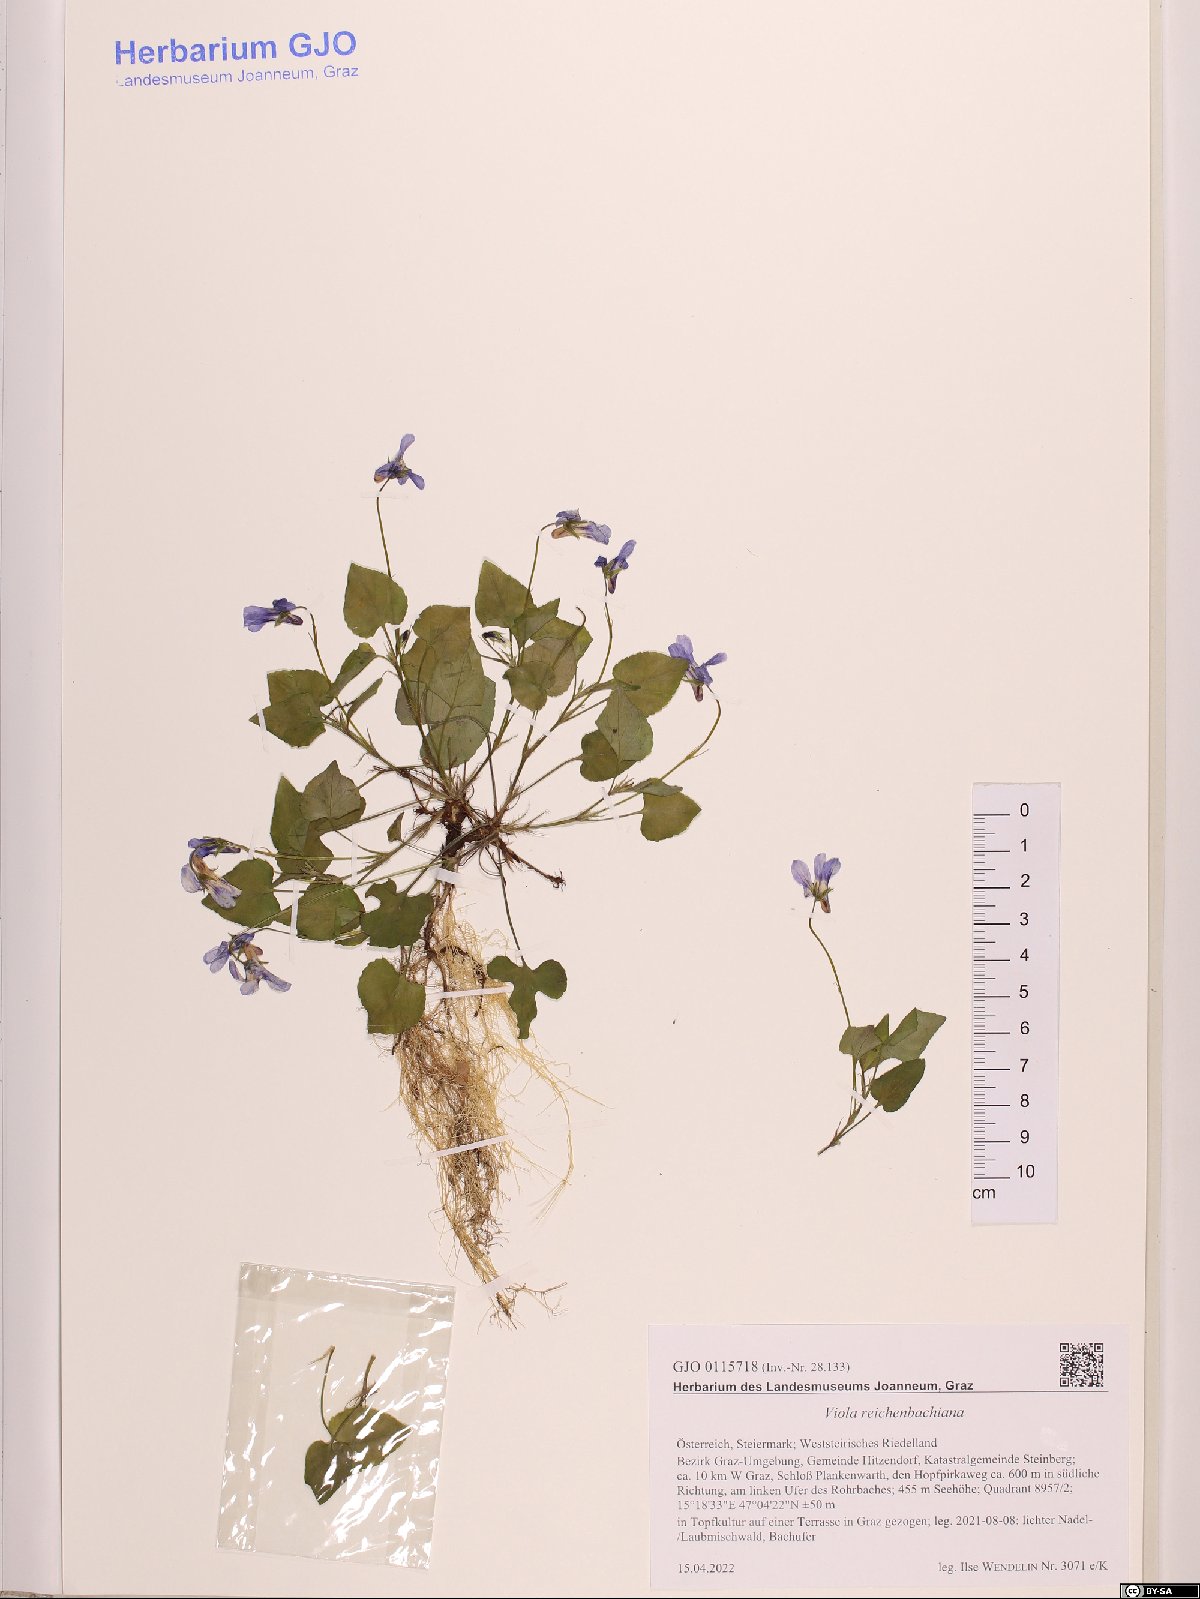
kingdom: Plantae
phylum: Tracheophyta
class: Magnoliopsida
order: Malpighiales
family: Violaceae
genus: Viola
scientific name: Viola reichenbachiana
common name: Early dog-violet
